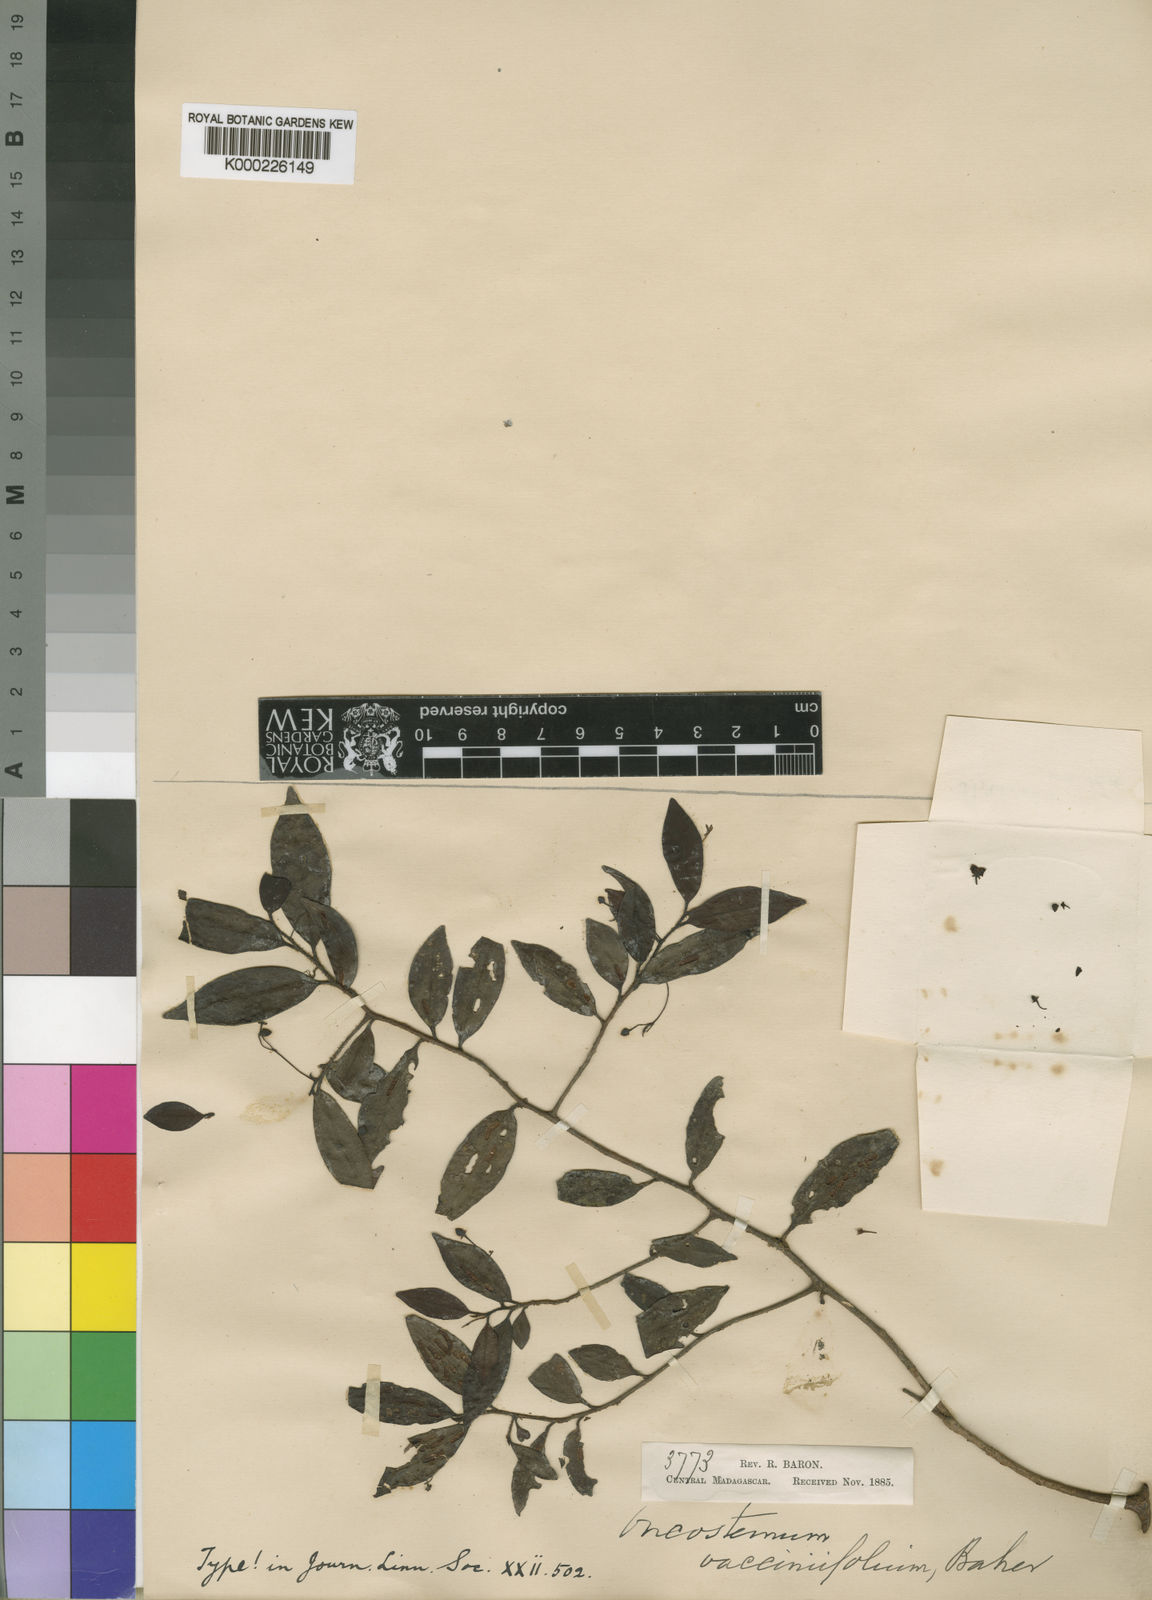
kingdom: Plantae
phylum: Tracheophyta
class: Magnoliopsida
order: Ericales
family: Primulaceae
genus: Oncostemum
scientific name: Oncostemum vacciniifolium
